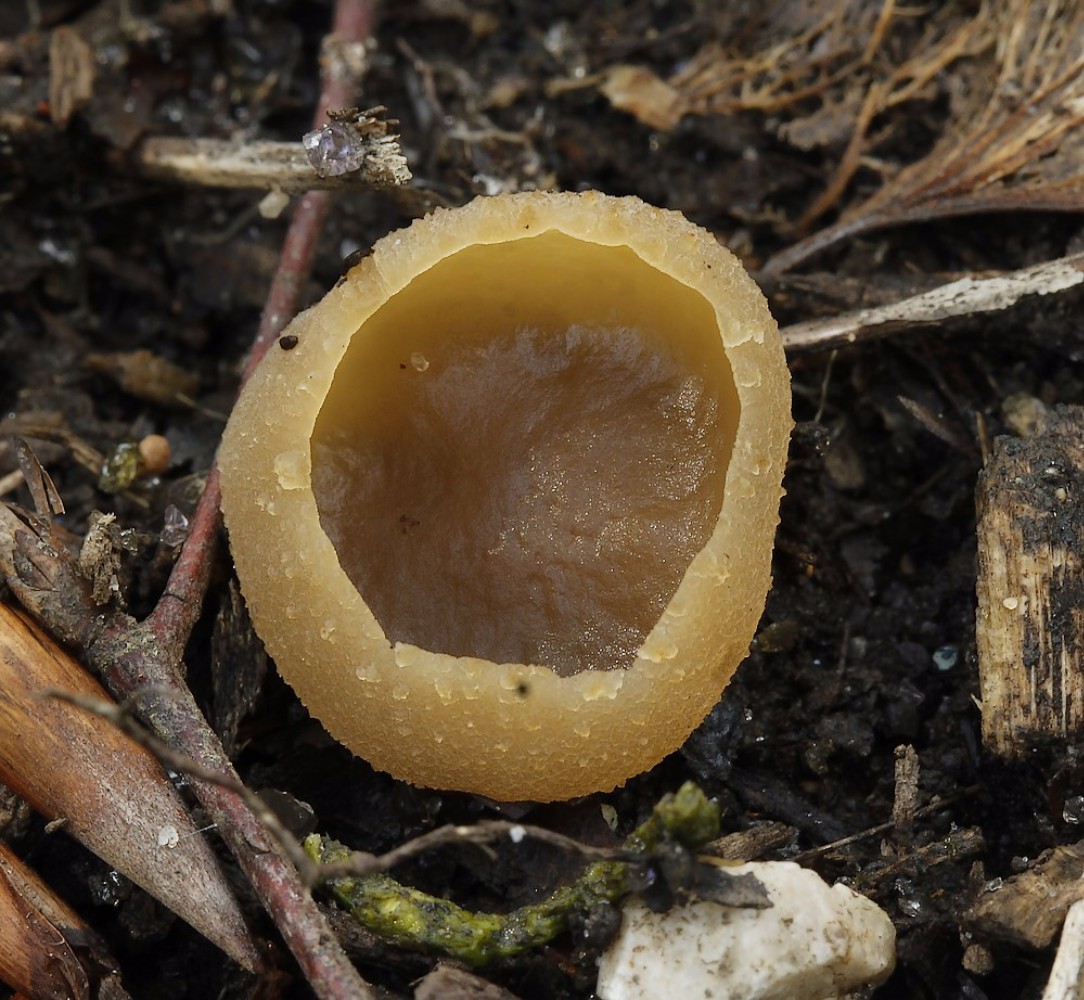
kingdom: Fungi
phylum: Ascomycota
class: Pezizomycetes
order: Pezizales
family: Pezizaceae
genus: Peziza
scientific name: Peziza arvernensis
